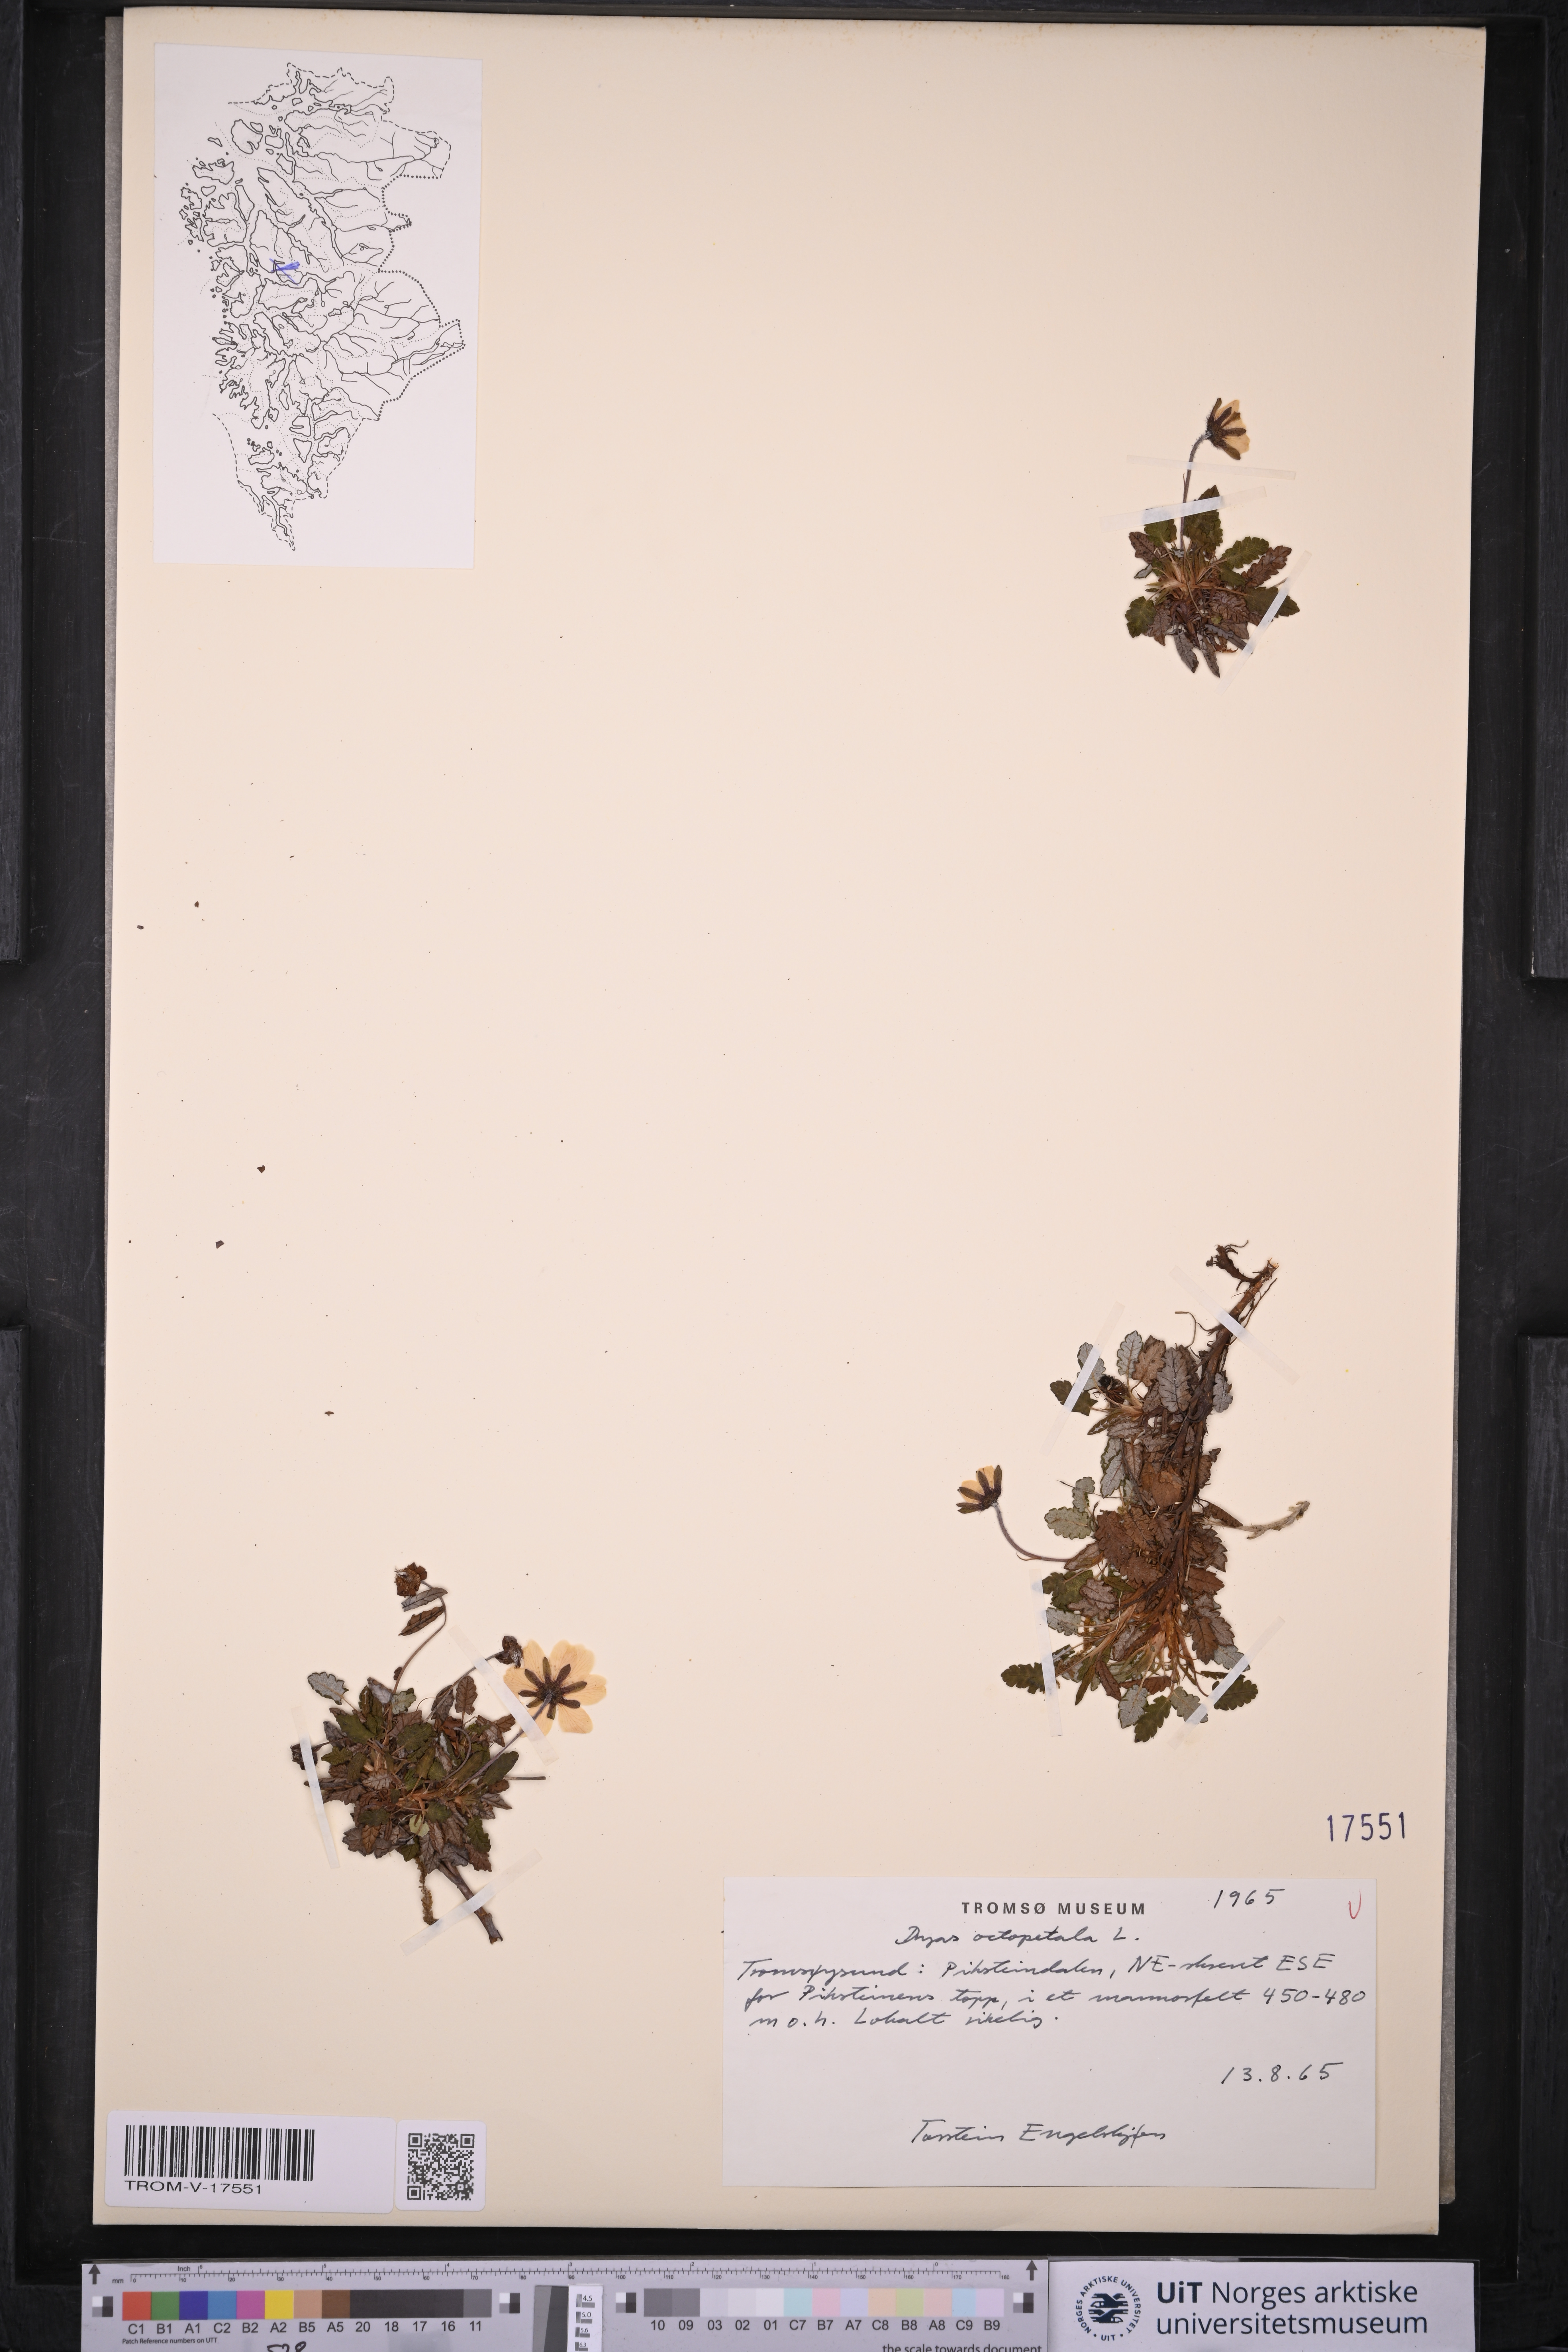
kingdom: Plantae
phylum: Tracheophyta
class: Magnoliopsida
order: Rosales
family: Rosaceae
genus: Dryas
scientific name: Dryas octopetala
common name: Eight-petal mountain-avens
